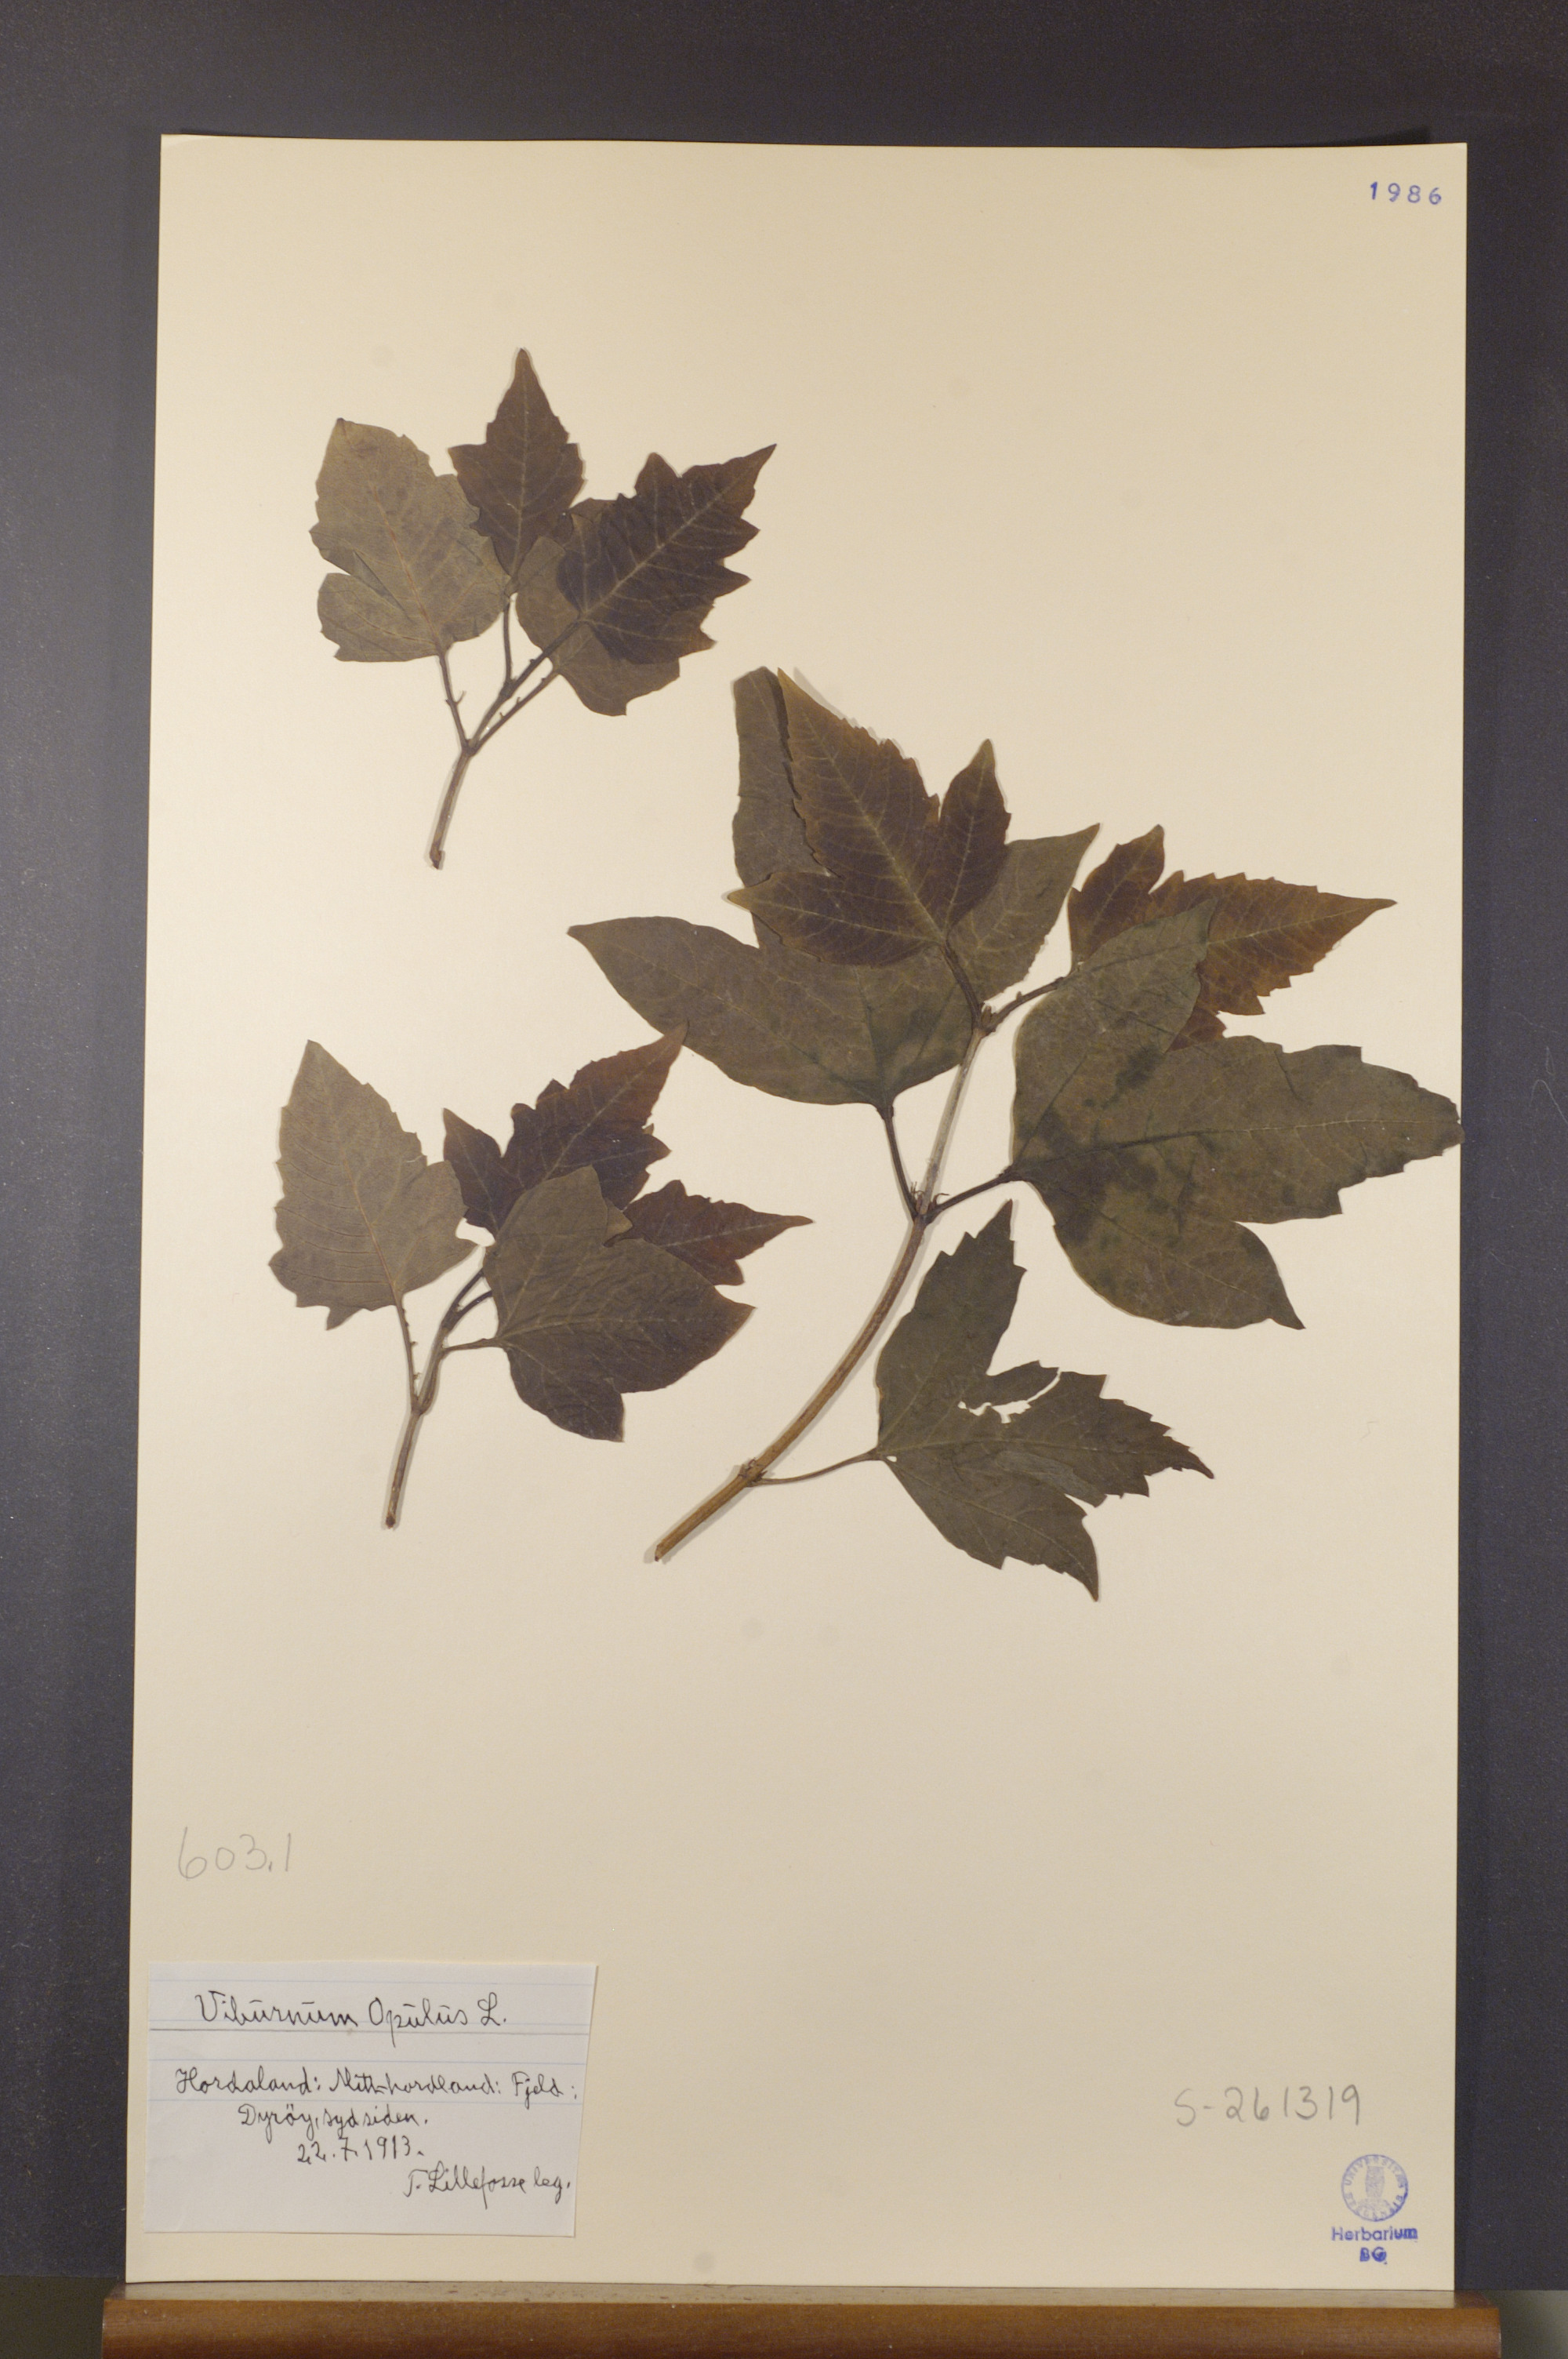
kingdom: Plantae
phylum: Tracheophyta
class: Magnoliopsida
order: Dipsacales
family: Viburnaceae
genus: Viburnum
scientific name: Viburnum opulus
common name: Guelder-rose
